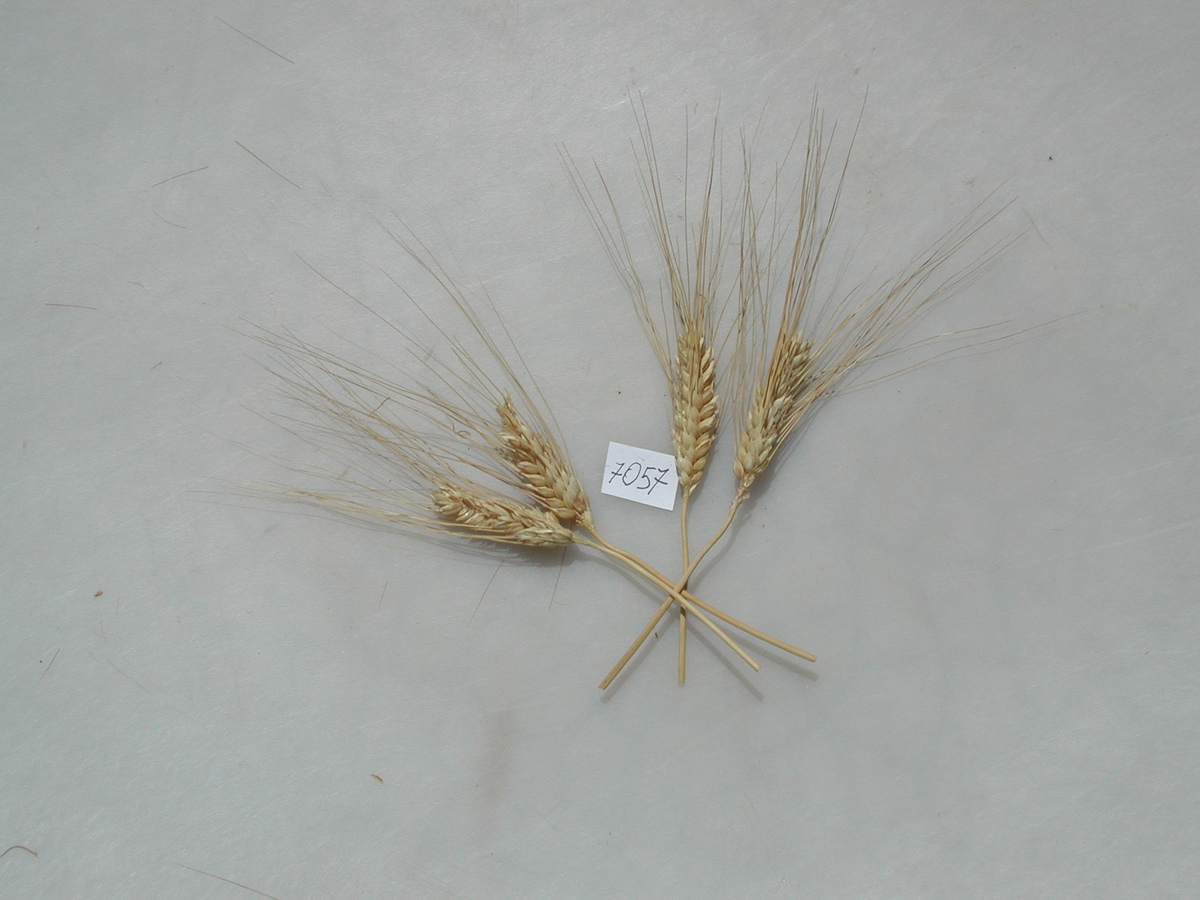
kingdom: Plantae
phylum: Tracheophyta
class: Liliopsida
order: Poales
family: Poaceae
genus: Triticum
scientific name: Triticum turgidum
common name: Wheat
